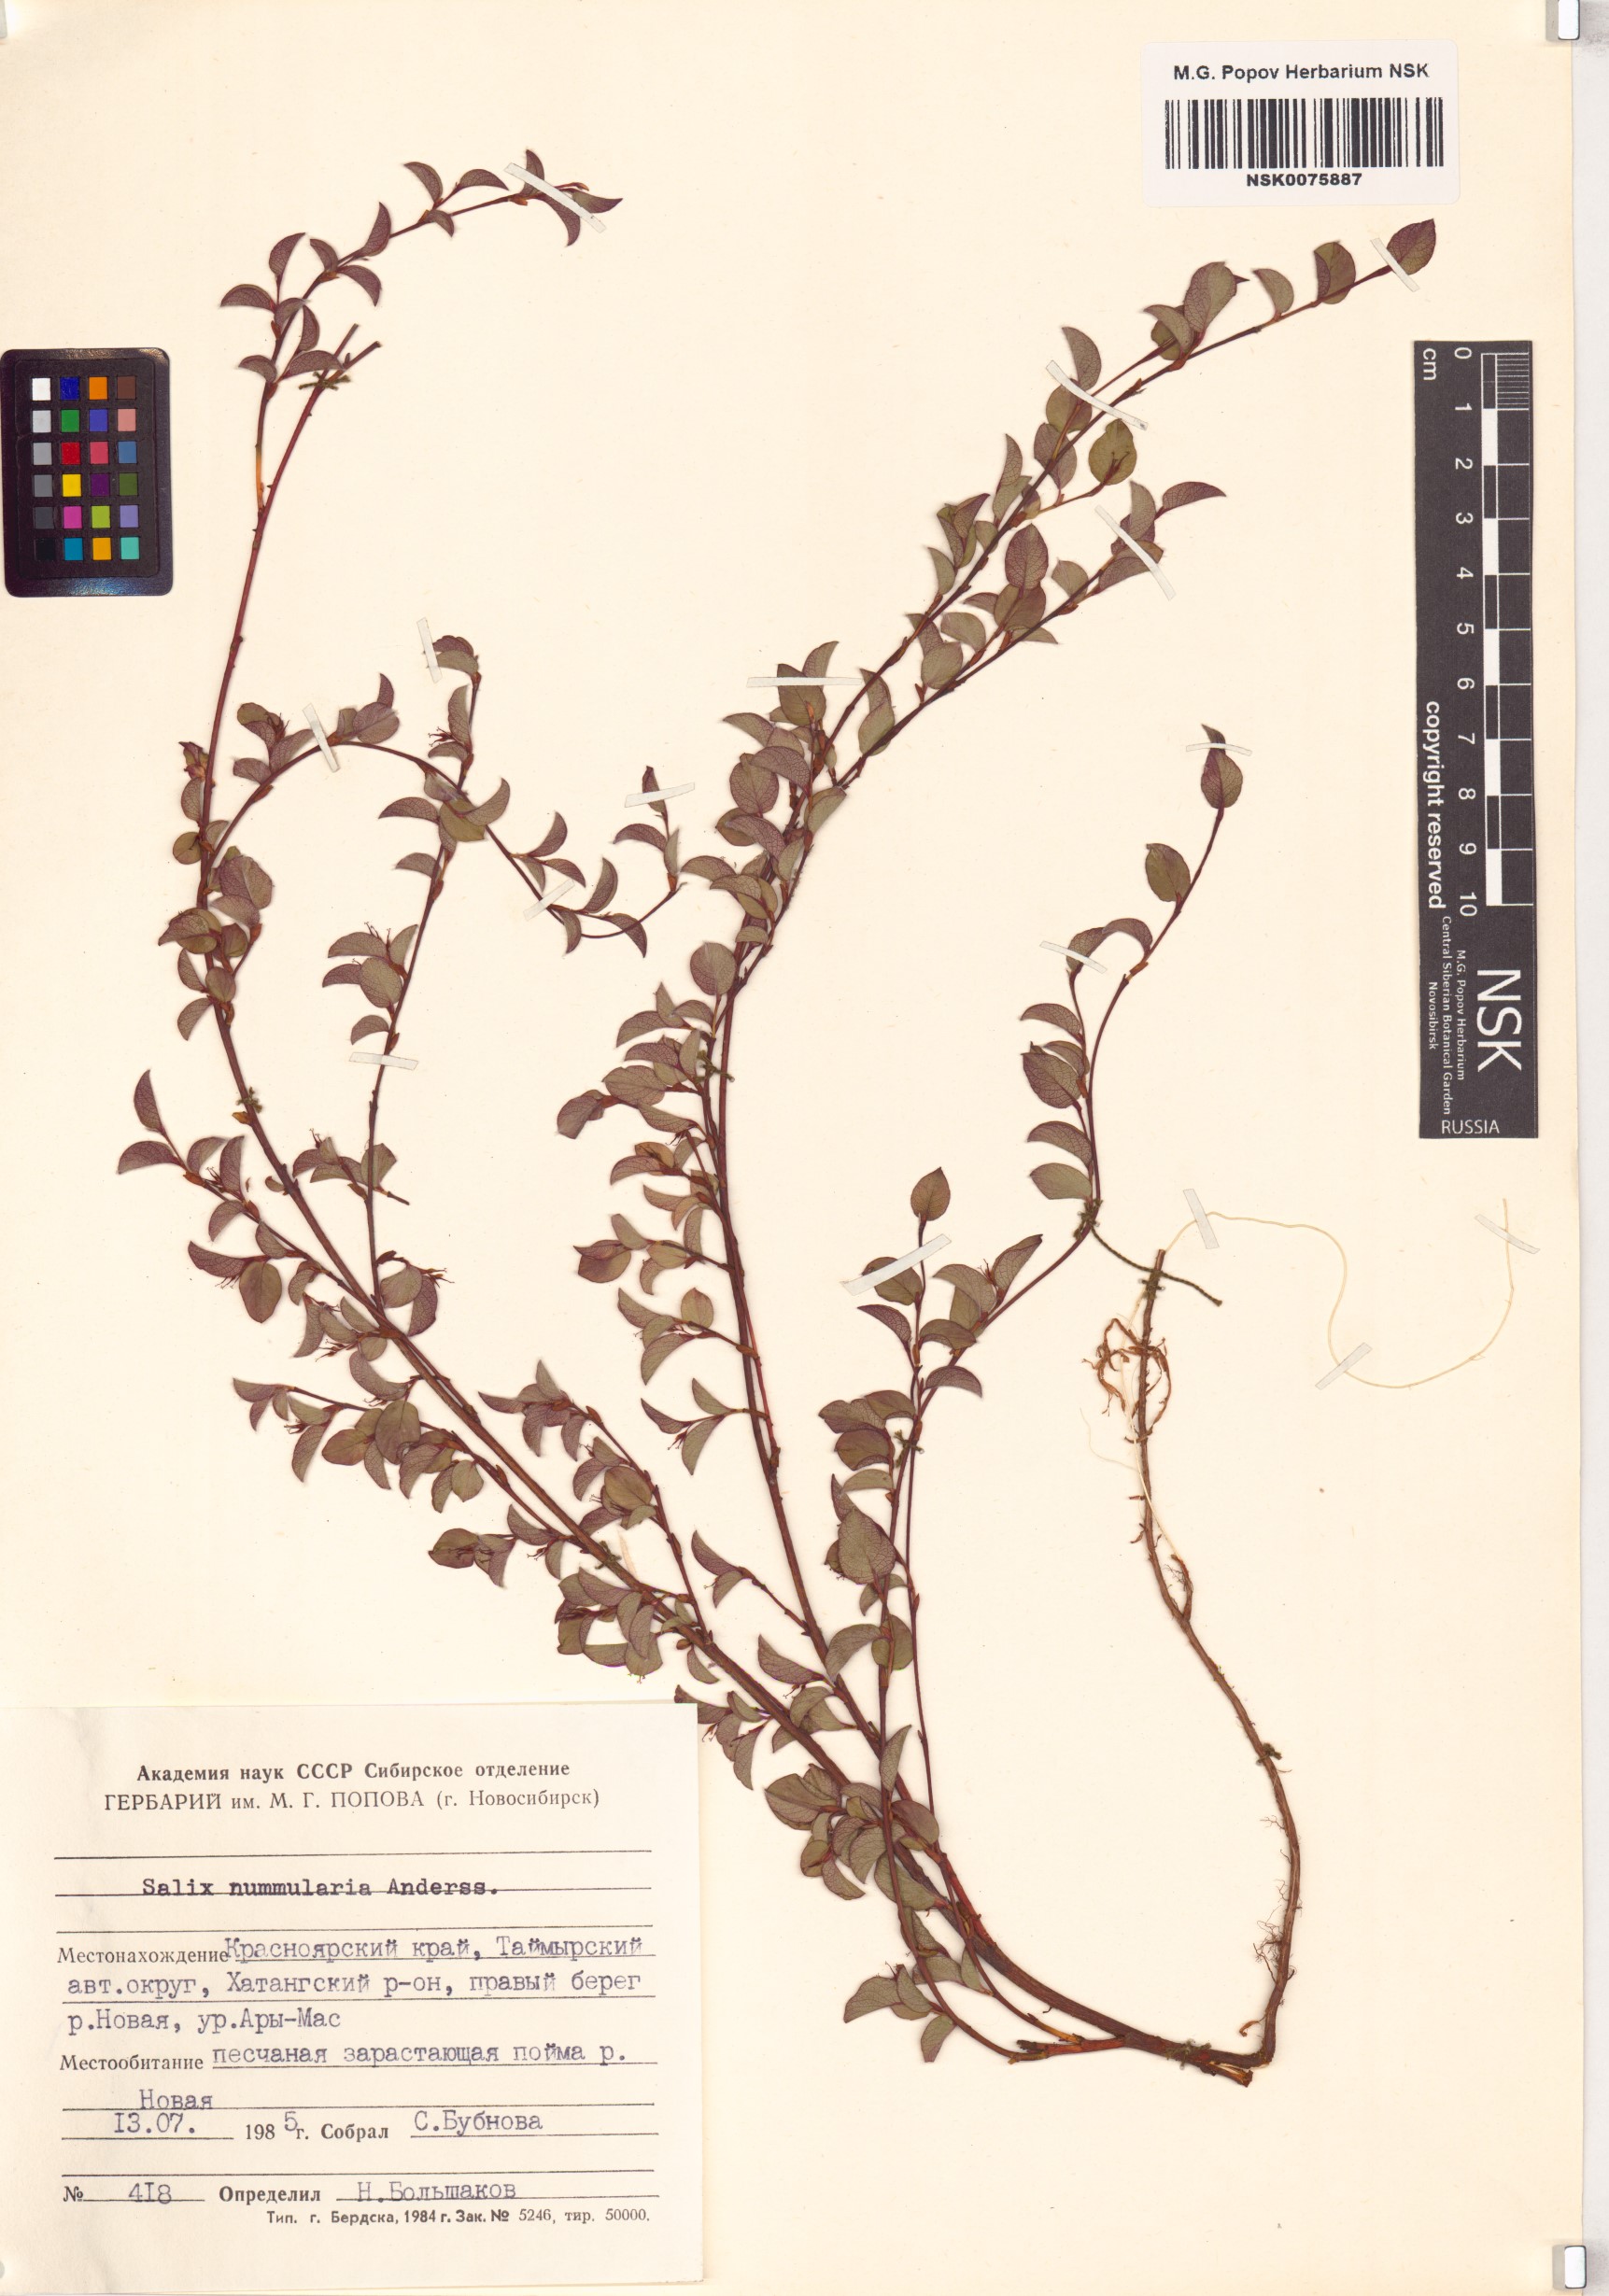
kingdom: Plantae
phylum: Tracheophyta
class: Magnoliopsida
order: Malpighiales
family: Salicaceae
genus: Salix
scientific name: Salix nummularia
